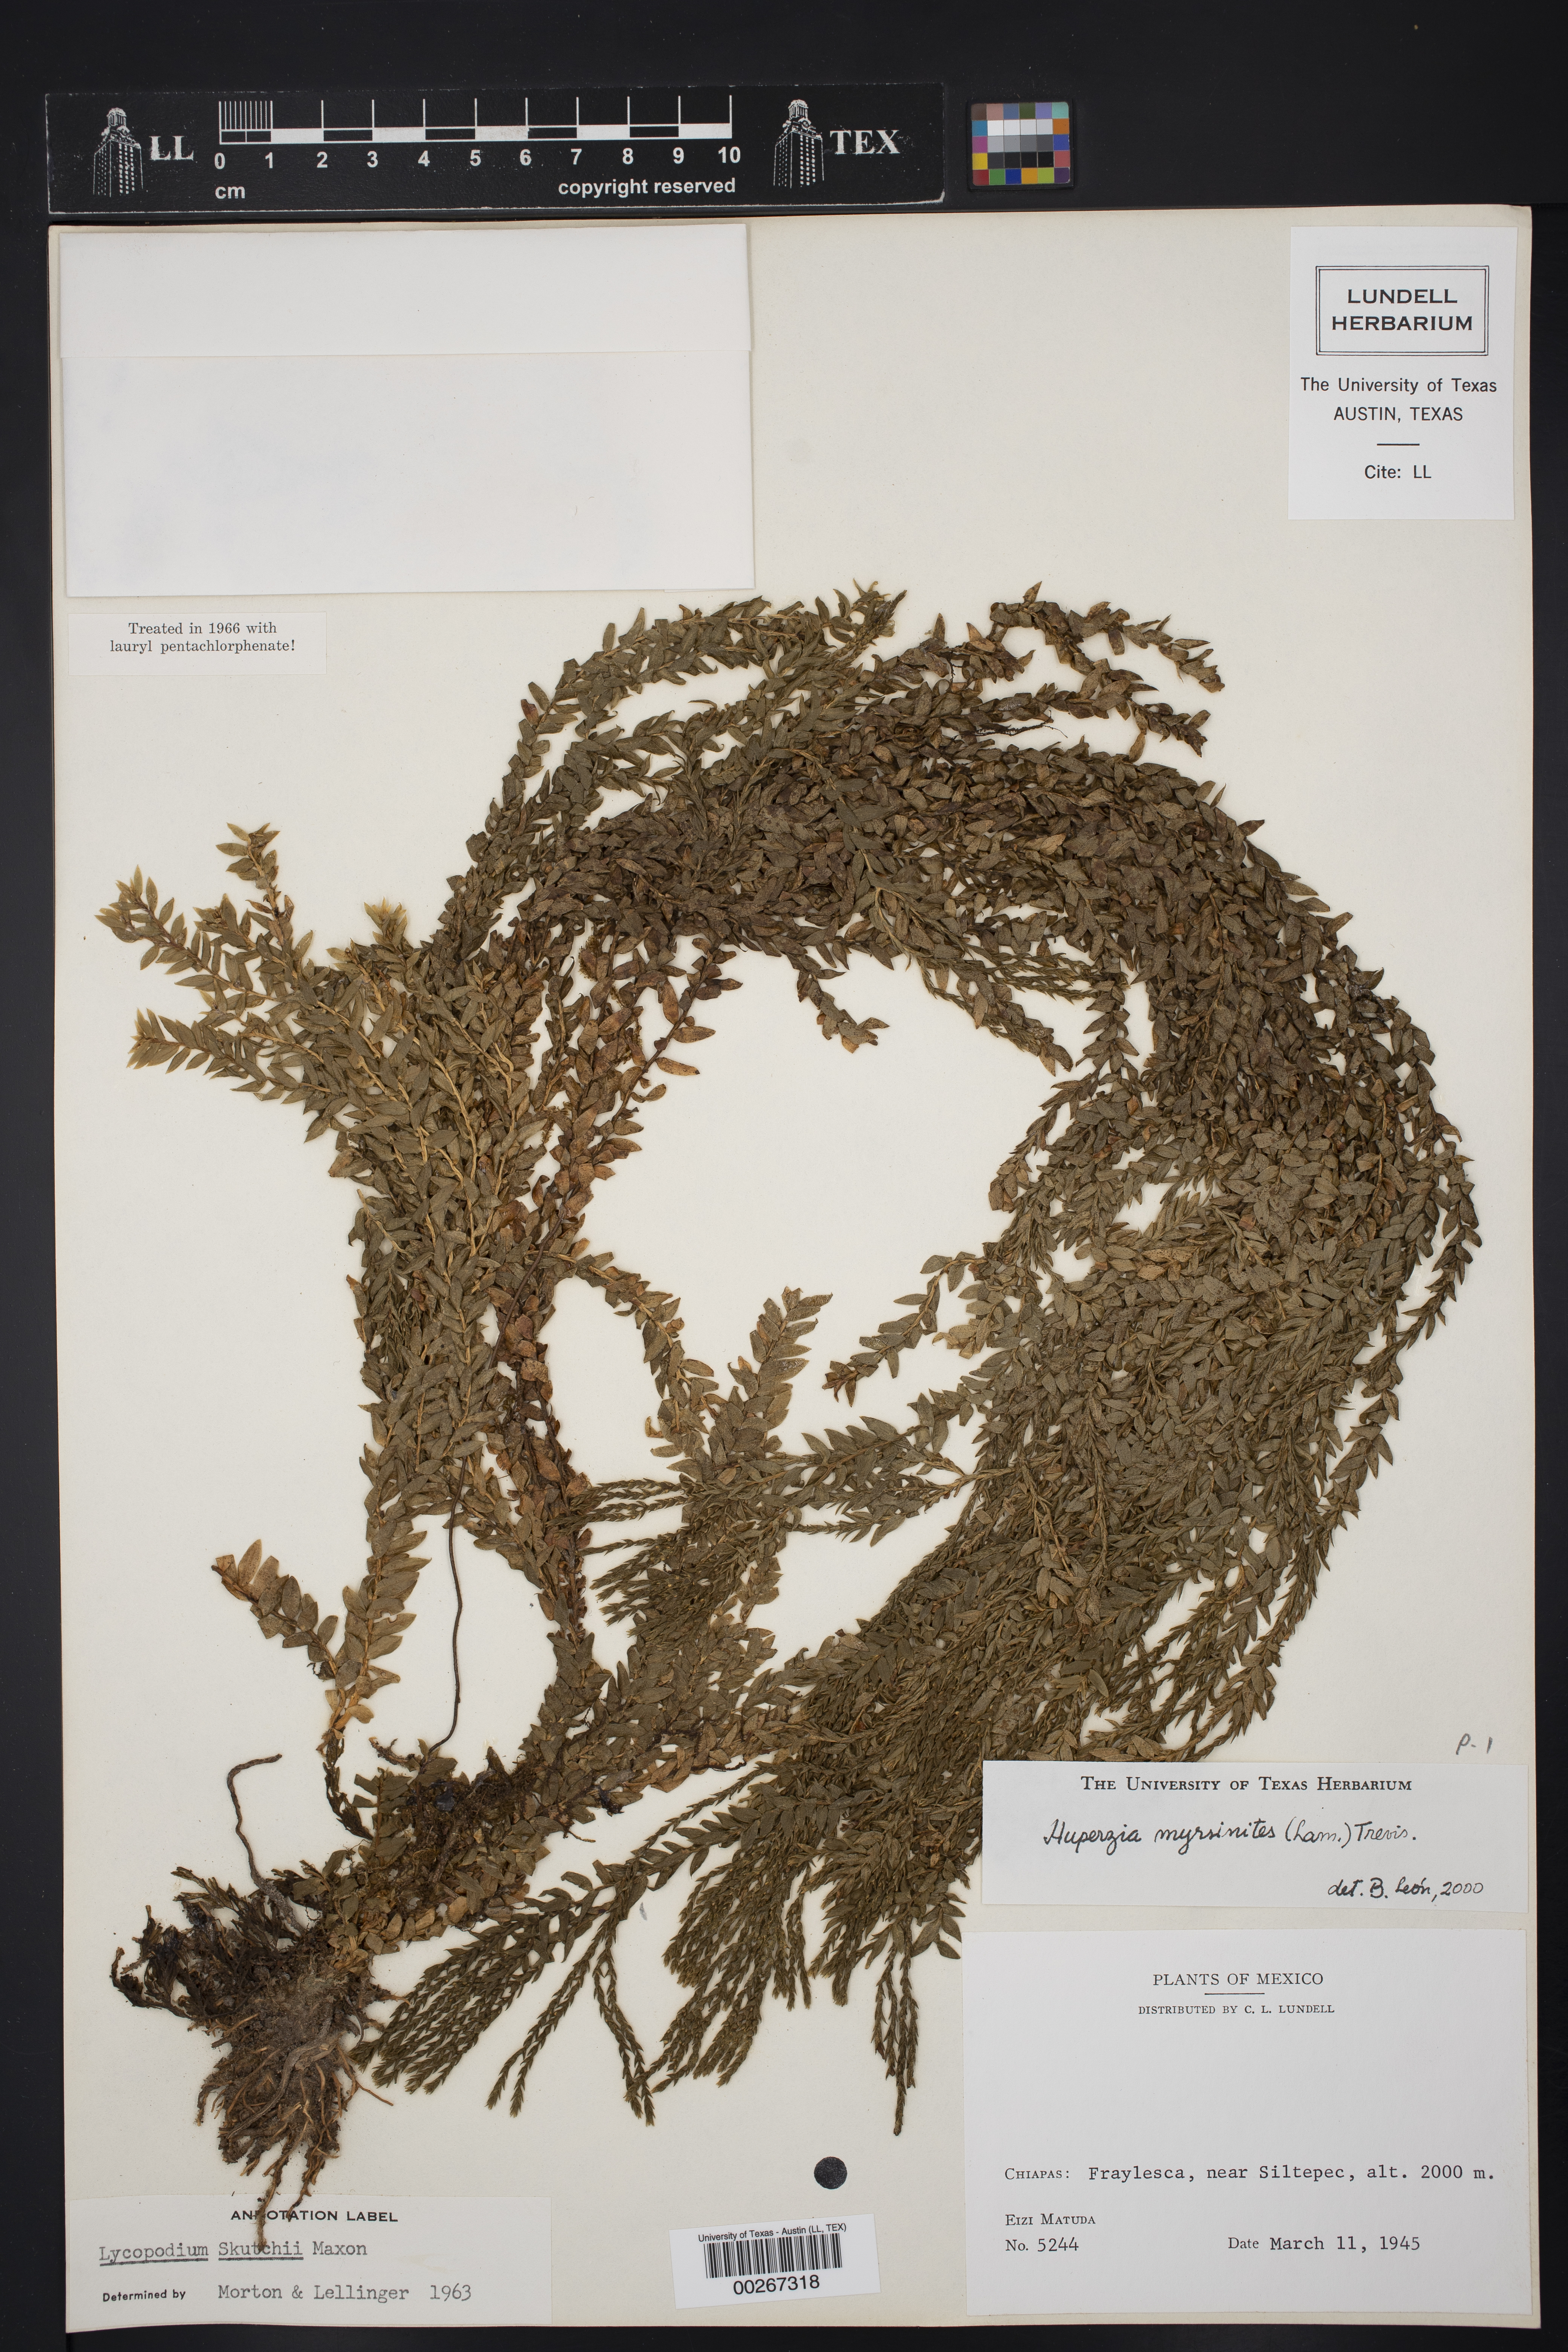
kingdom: Plantae
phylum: Tracheophyta
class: Lycopodiopsida
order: Lycopodiales
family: Lycopodiaceae
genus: Phlegmariurus
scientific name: Phlegmariurus myrsinites
